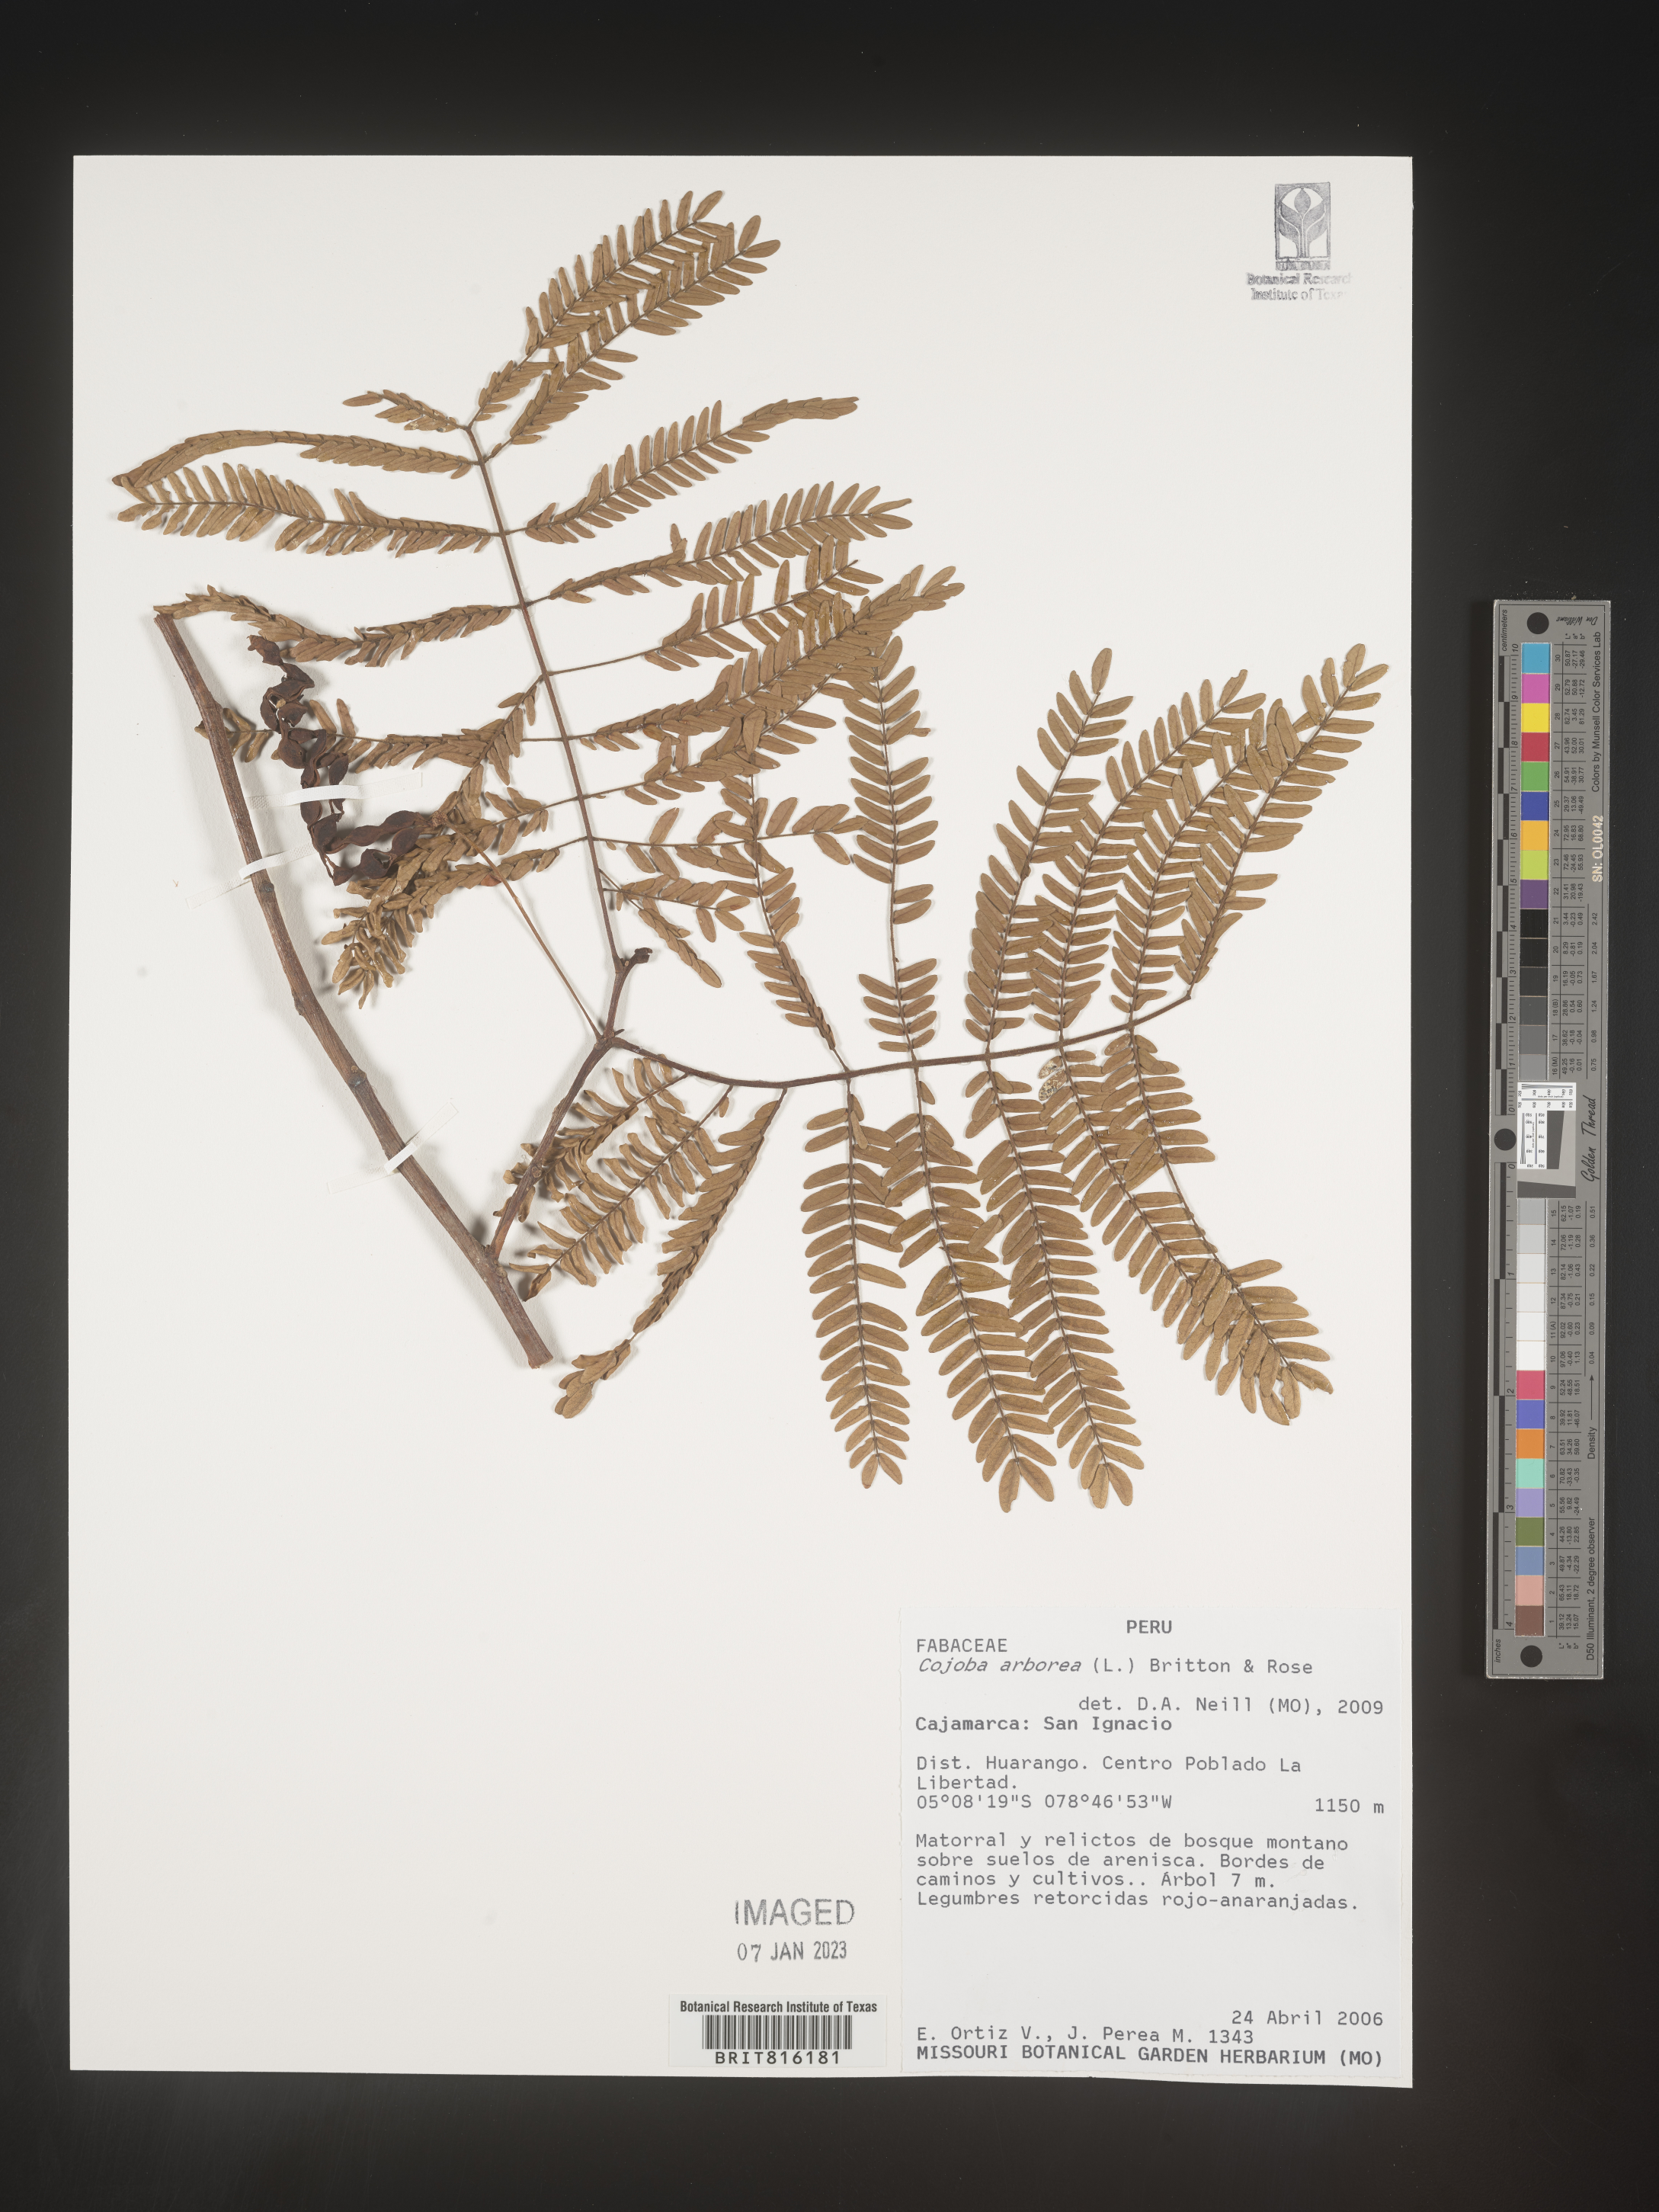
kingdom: Plantae
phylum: Tracheophyta
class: Magnoliopsida
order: Fabales
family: Fabaceae
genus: Cojoba
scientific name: Cojoba
